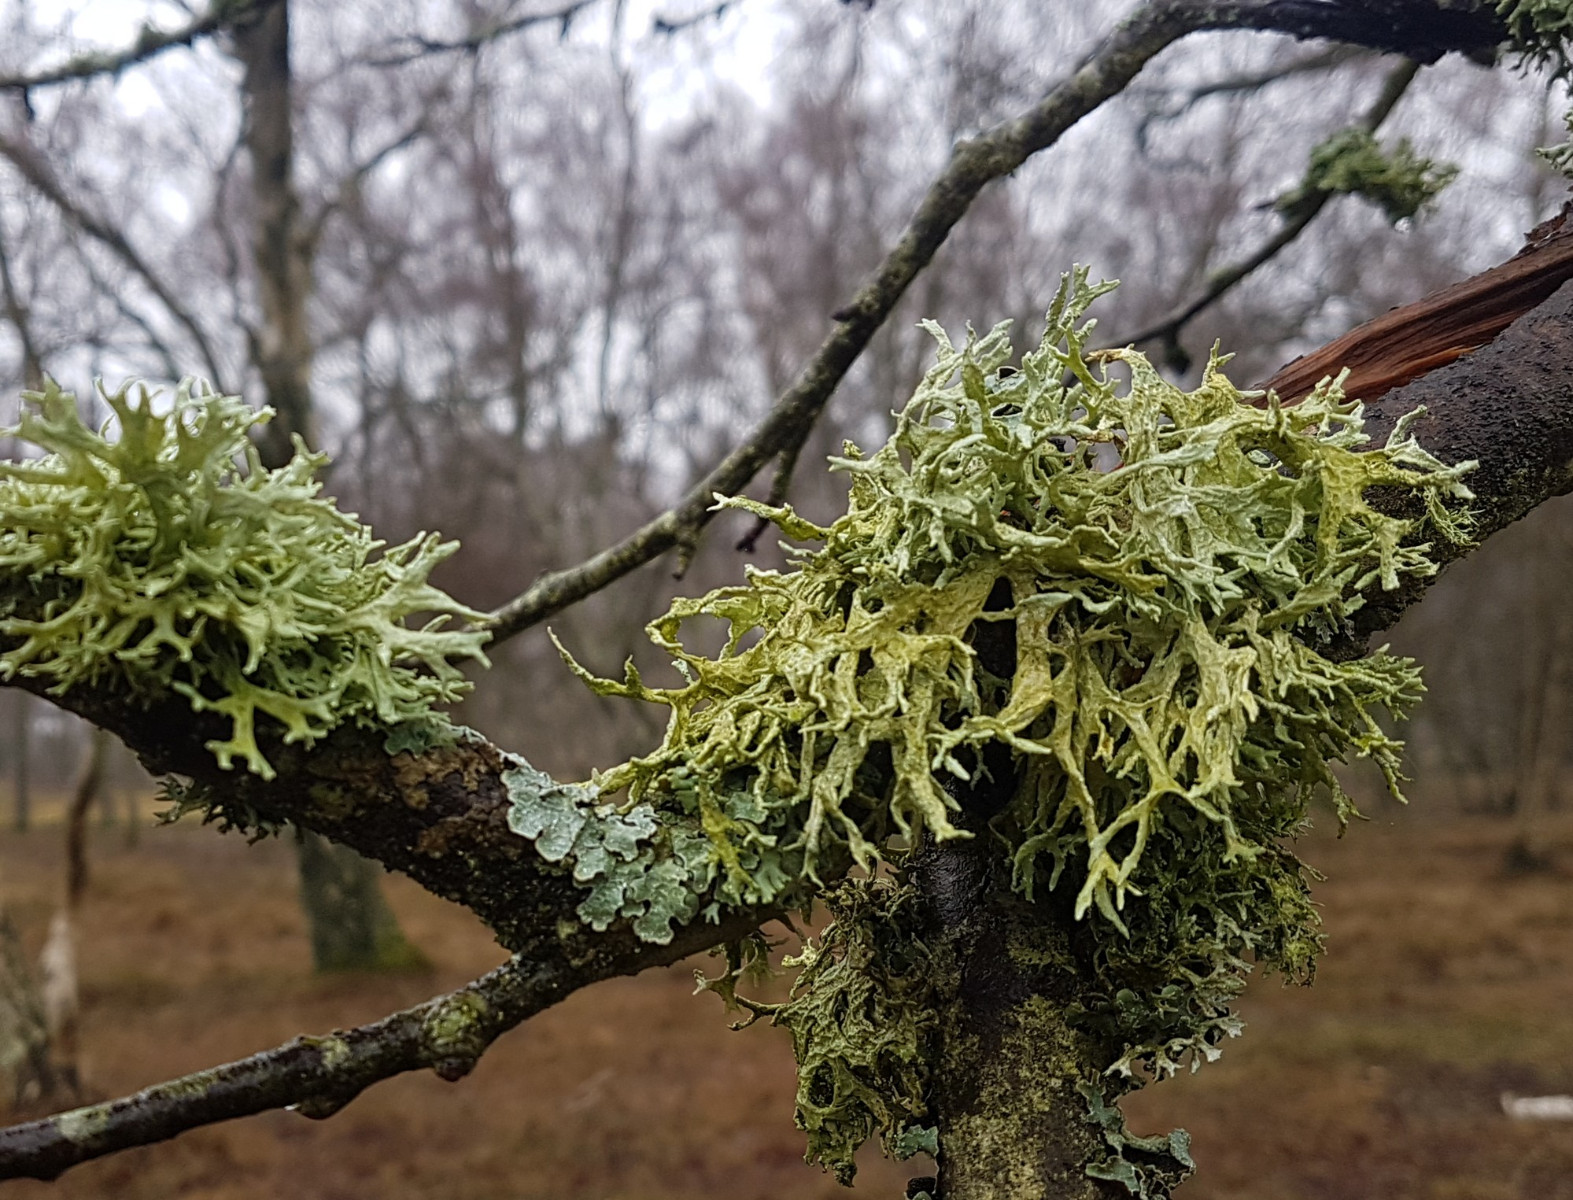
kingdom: Fungi
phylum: Ascomycota
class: Lecanoromycetes
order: Lecanorales
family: Parmeliaceae
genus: Evernia
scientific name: Evernia prunastri
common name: almindelig slåenlav
